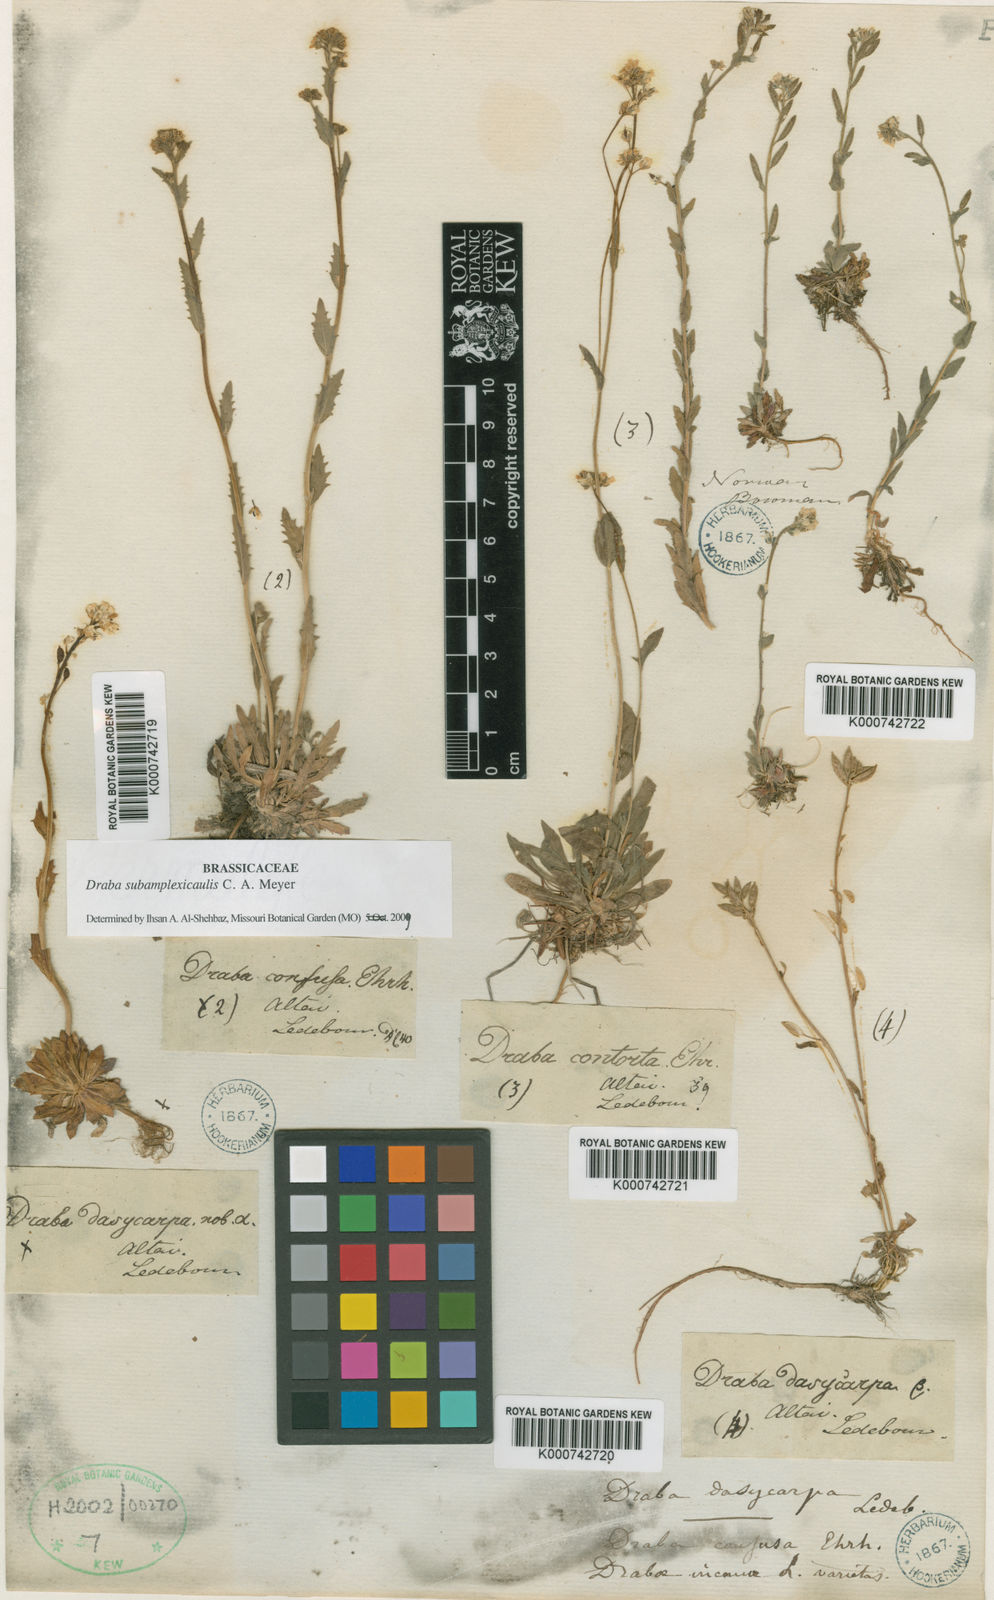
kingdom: Plantae
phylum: Tracheophyta
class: Magnoliopsida
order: Brassicales
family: Brassicaceae
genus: Draba
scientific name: Draba subamplexicaulis
